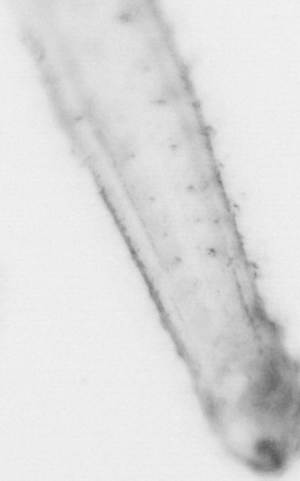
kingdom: Animalia
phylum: Chaetognatha
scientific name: Chaetognatha
